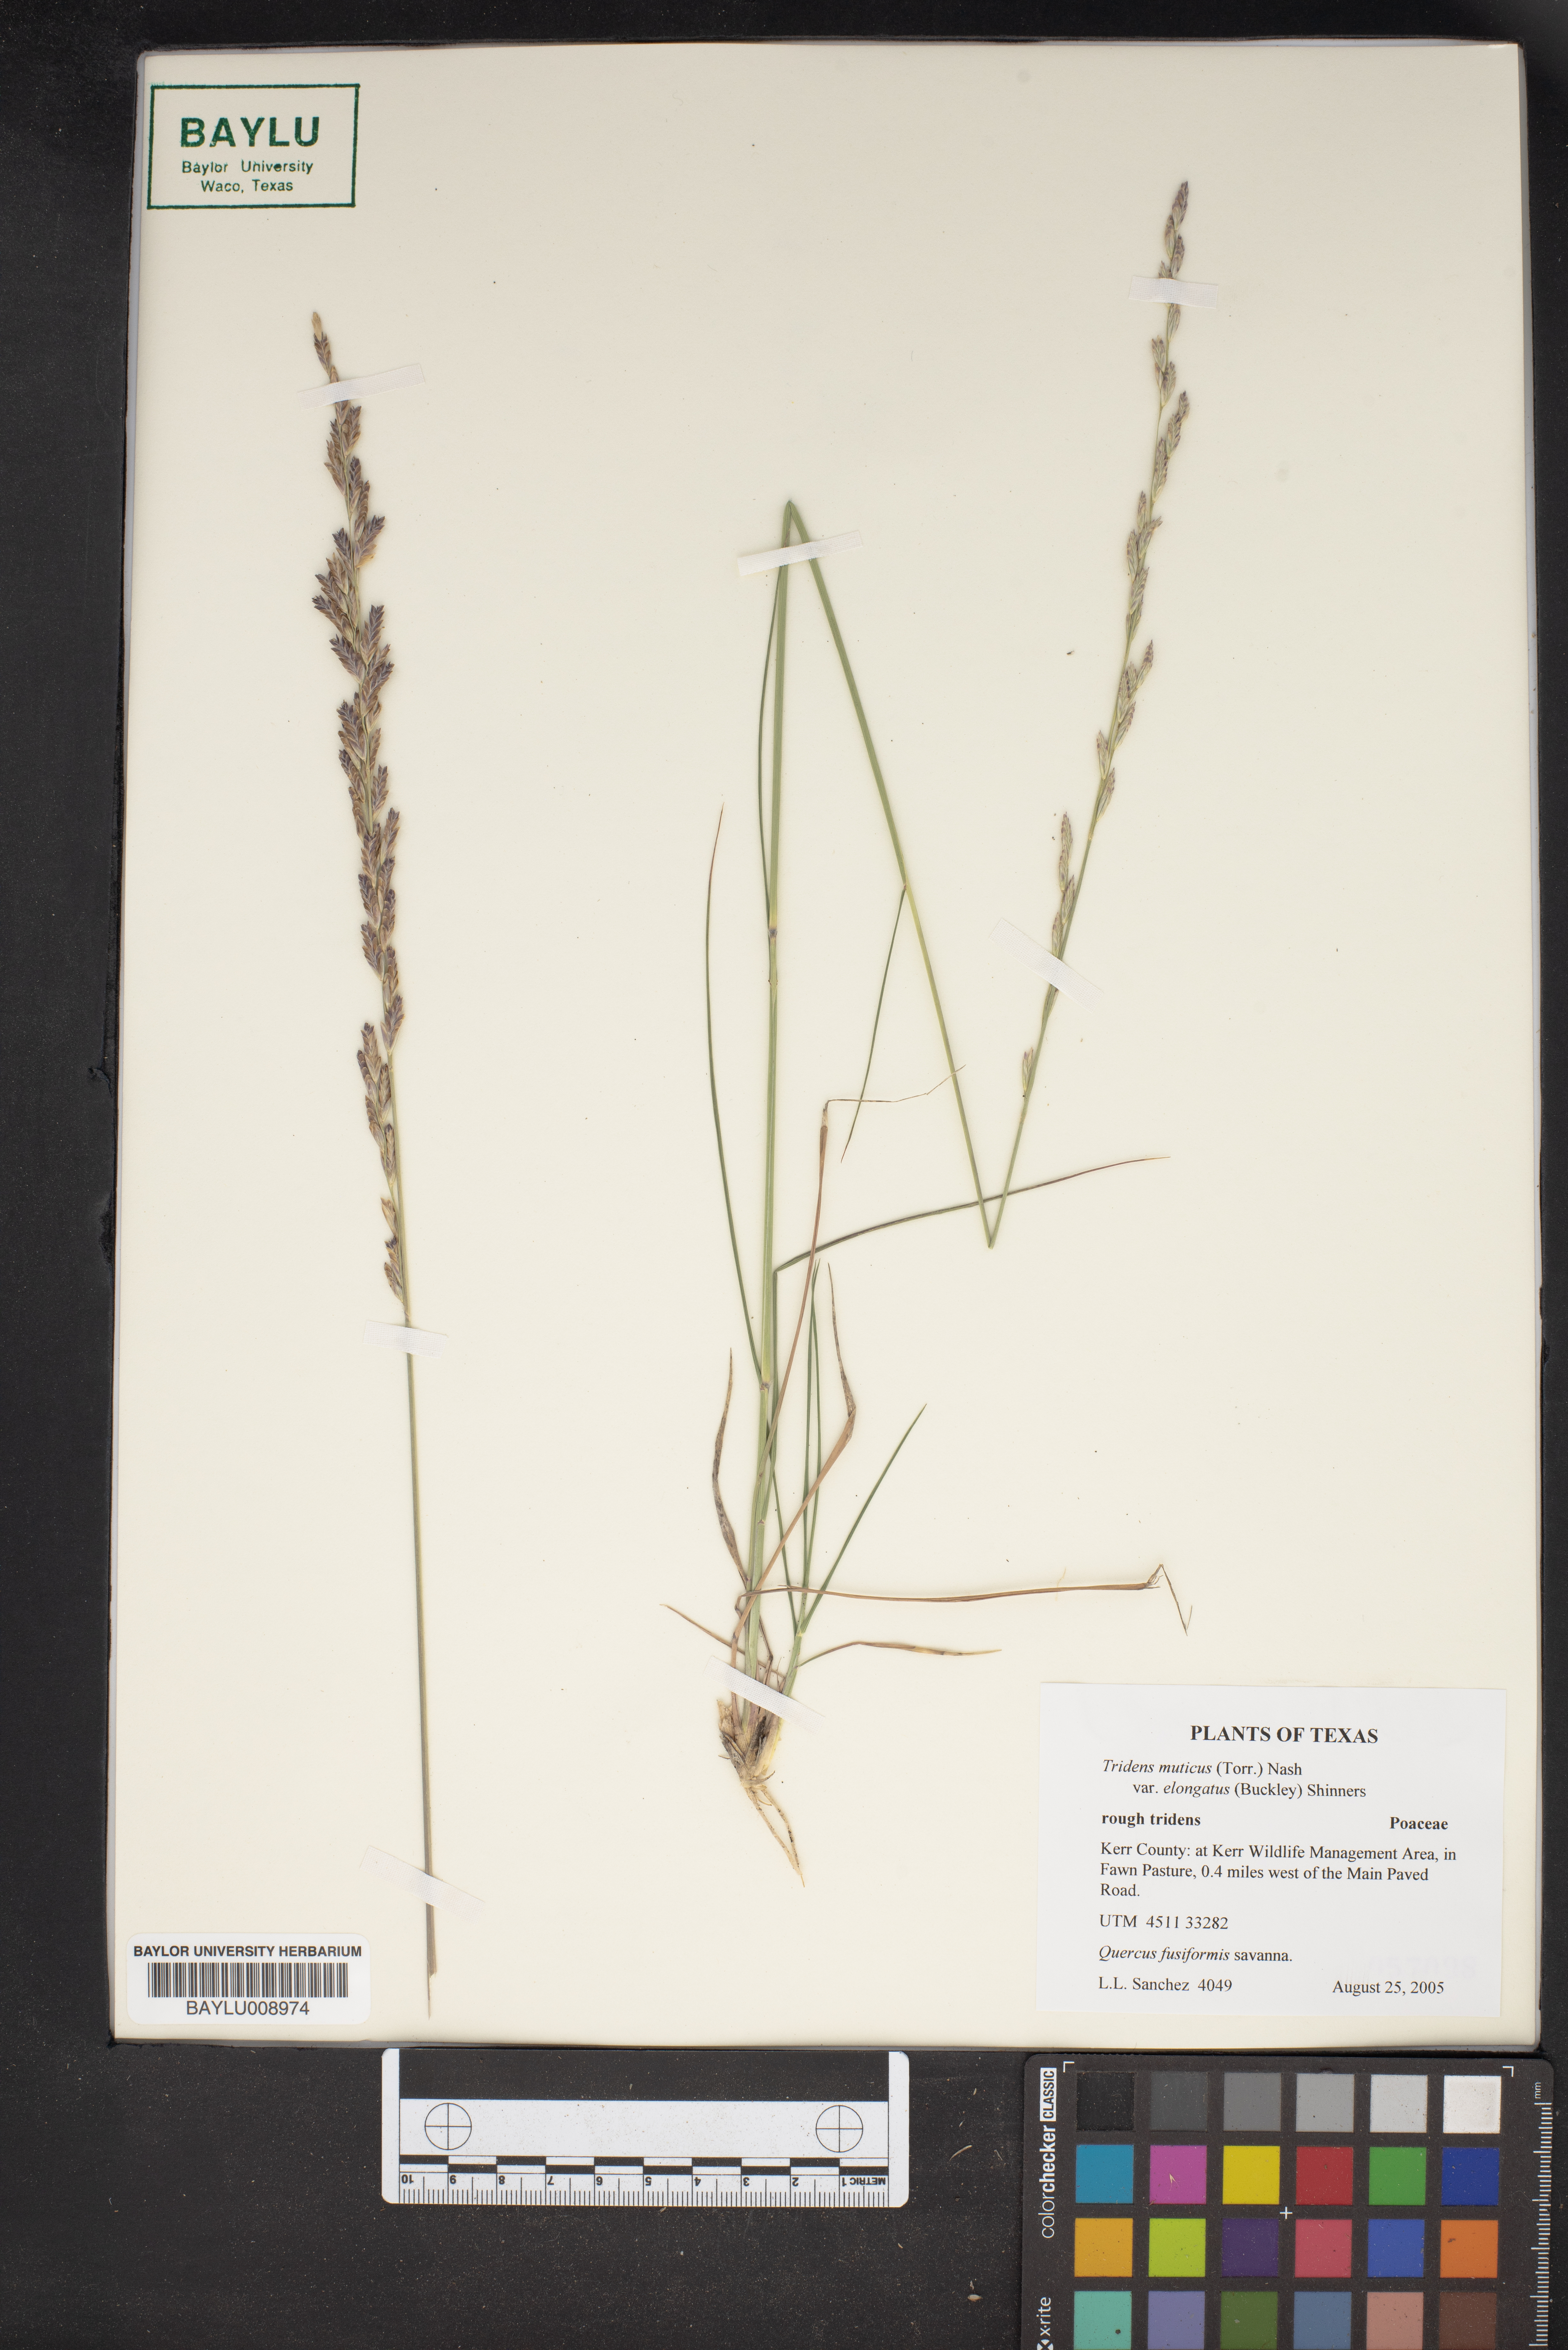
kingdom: Plantae
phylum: Tracheophyta
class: Liliopsida
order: Poales
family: Poaceae
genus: Tridentopsis
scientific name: Tridentopsis mutica
